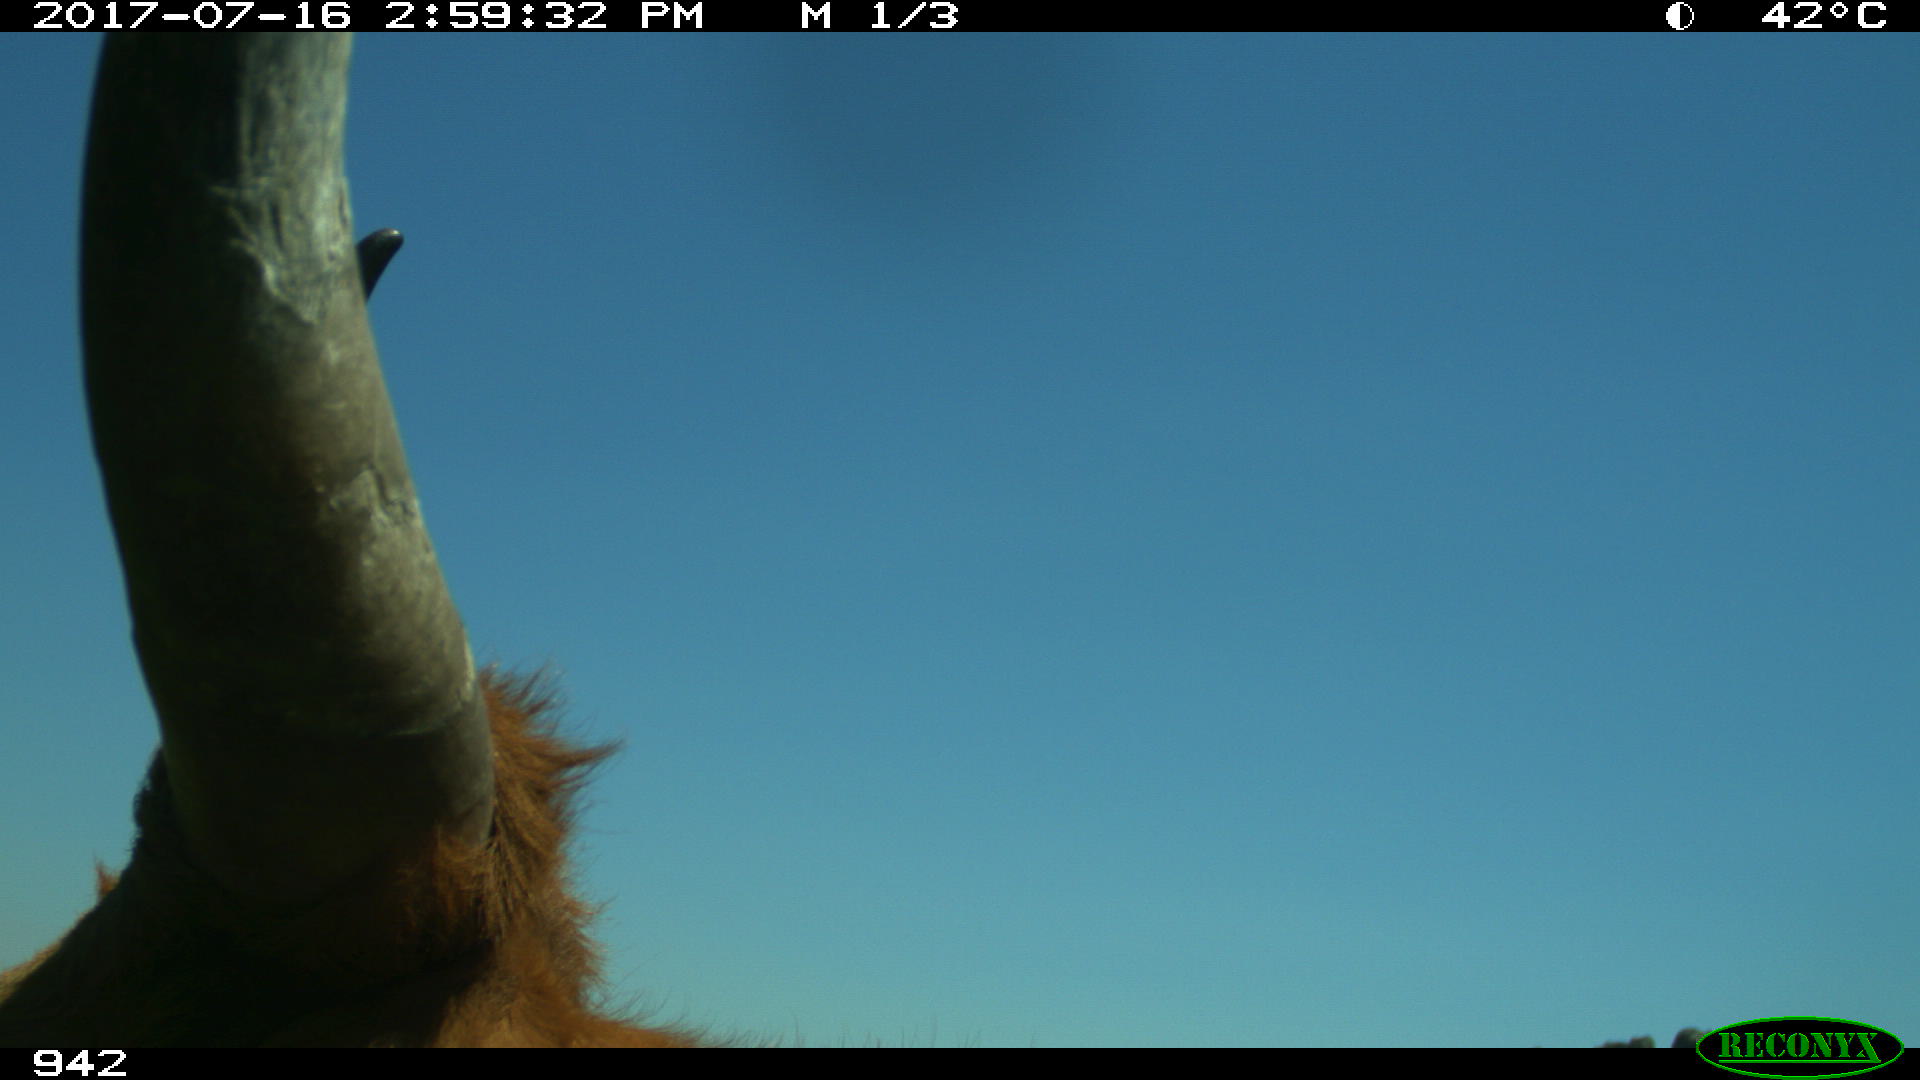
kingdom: Animalia
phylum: Chordata
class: Mammalia
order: Artiodactyla
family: Bovidae
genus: Bos
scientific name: Bos taurus
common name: Domesticated cattle
